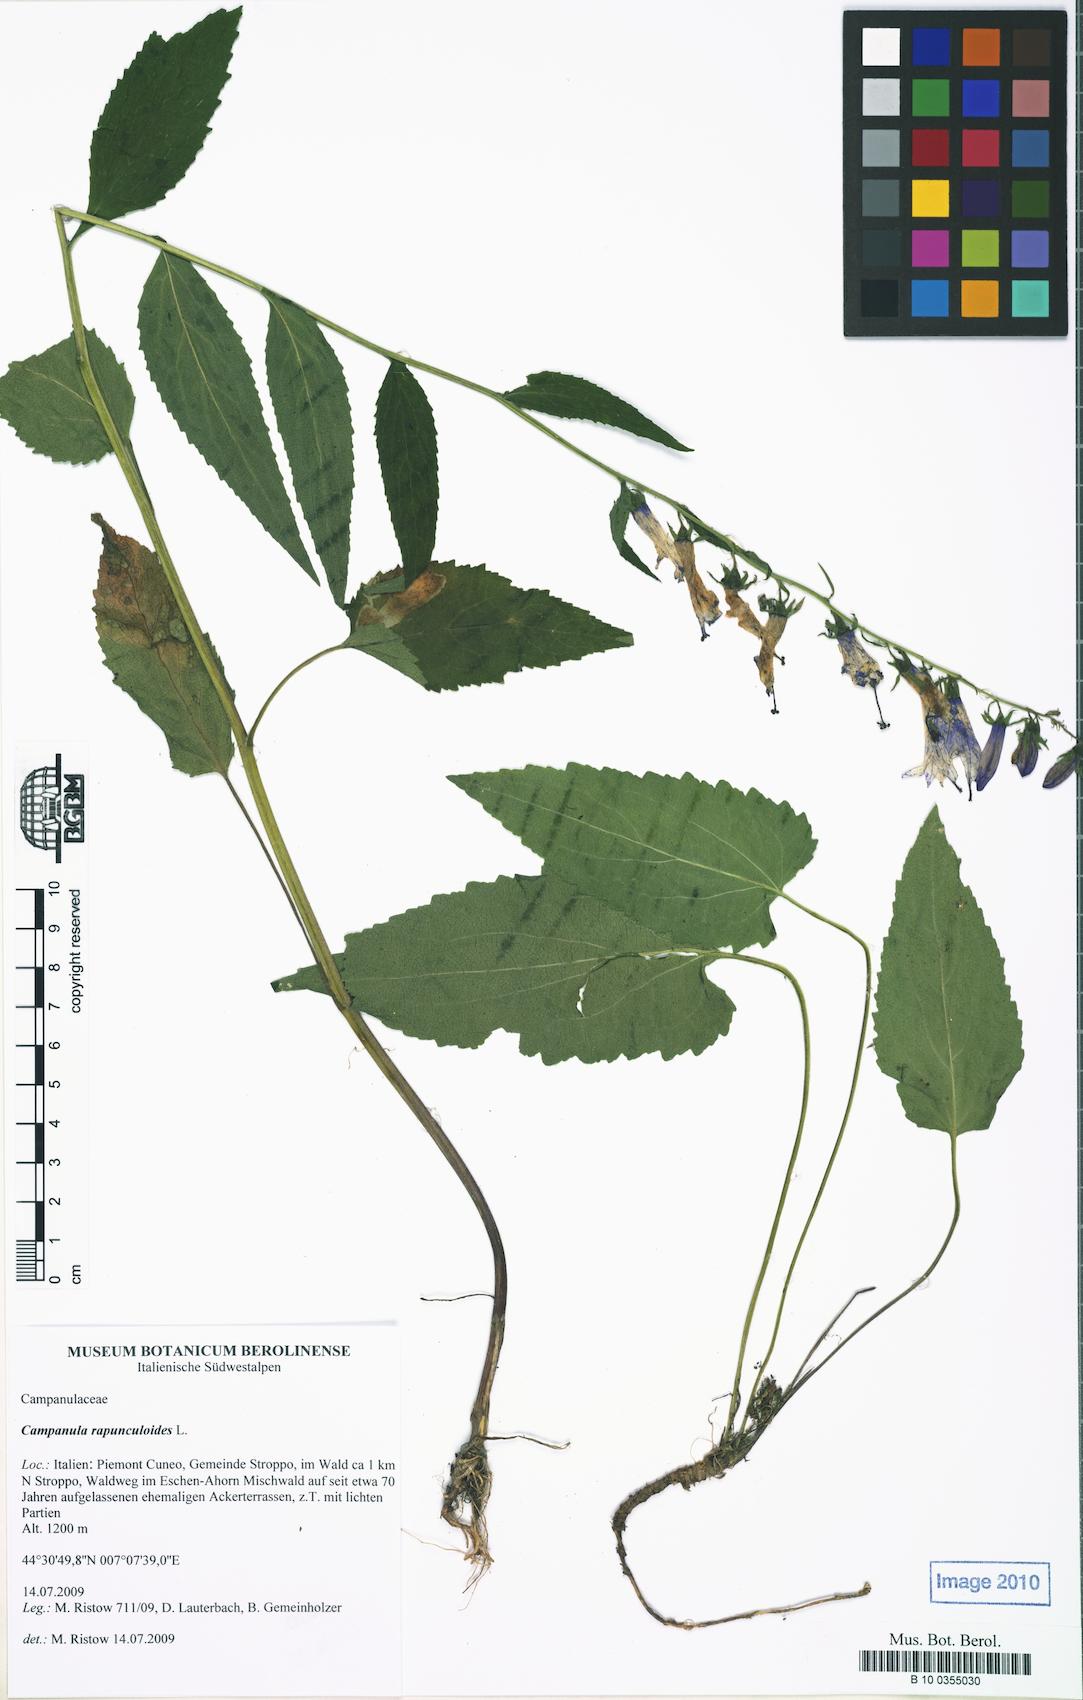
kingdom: Plantae
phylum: Tracheophyta
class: Magnoliopsida
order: Asterales
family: Campanulaceae
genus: Campanula
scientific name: Campanula rapunculoides
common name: Creeping bellflower
